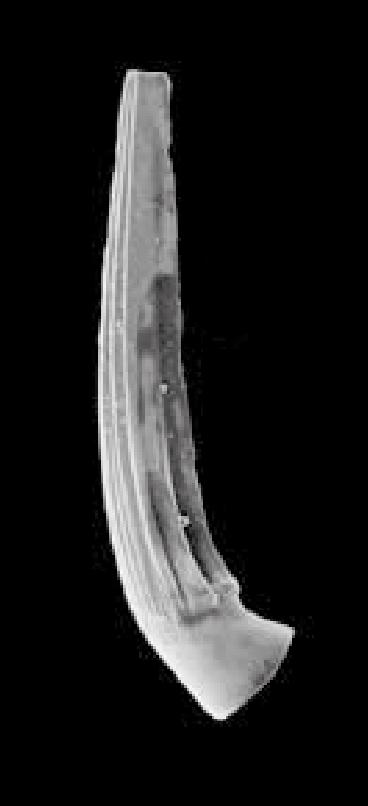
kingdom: Animalia
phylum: Chordata
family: Strachanognathidae
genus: Decoriconus
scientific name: Decoriconus
